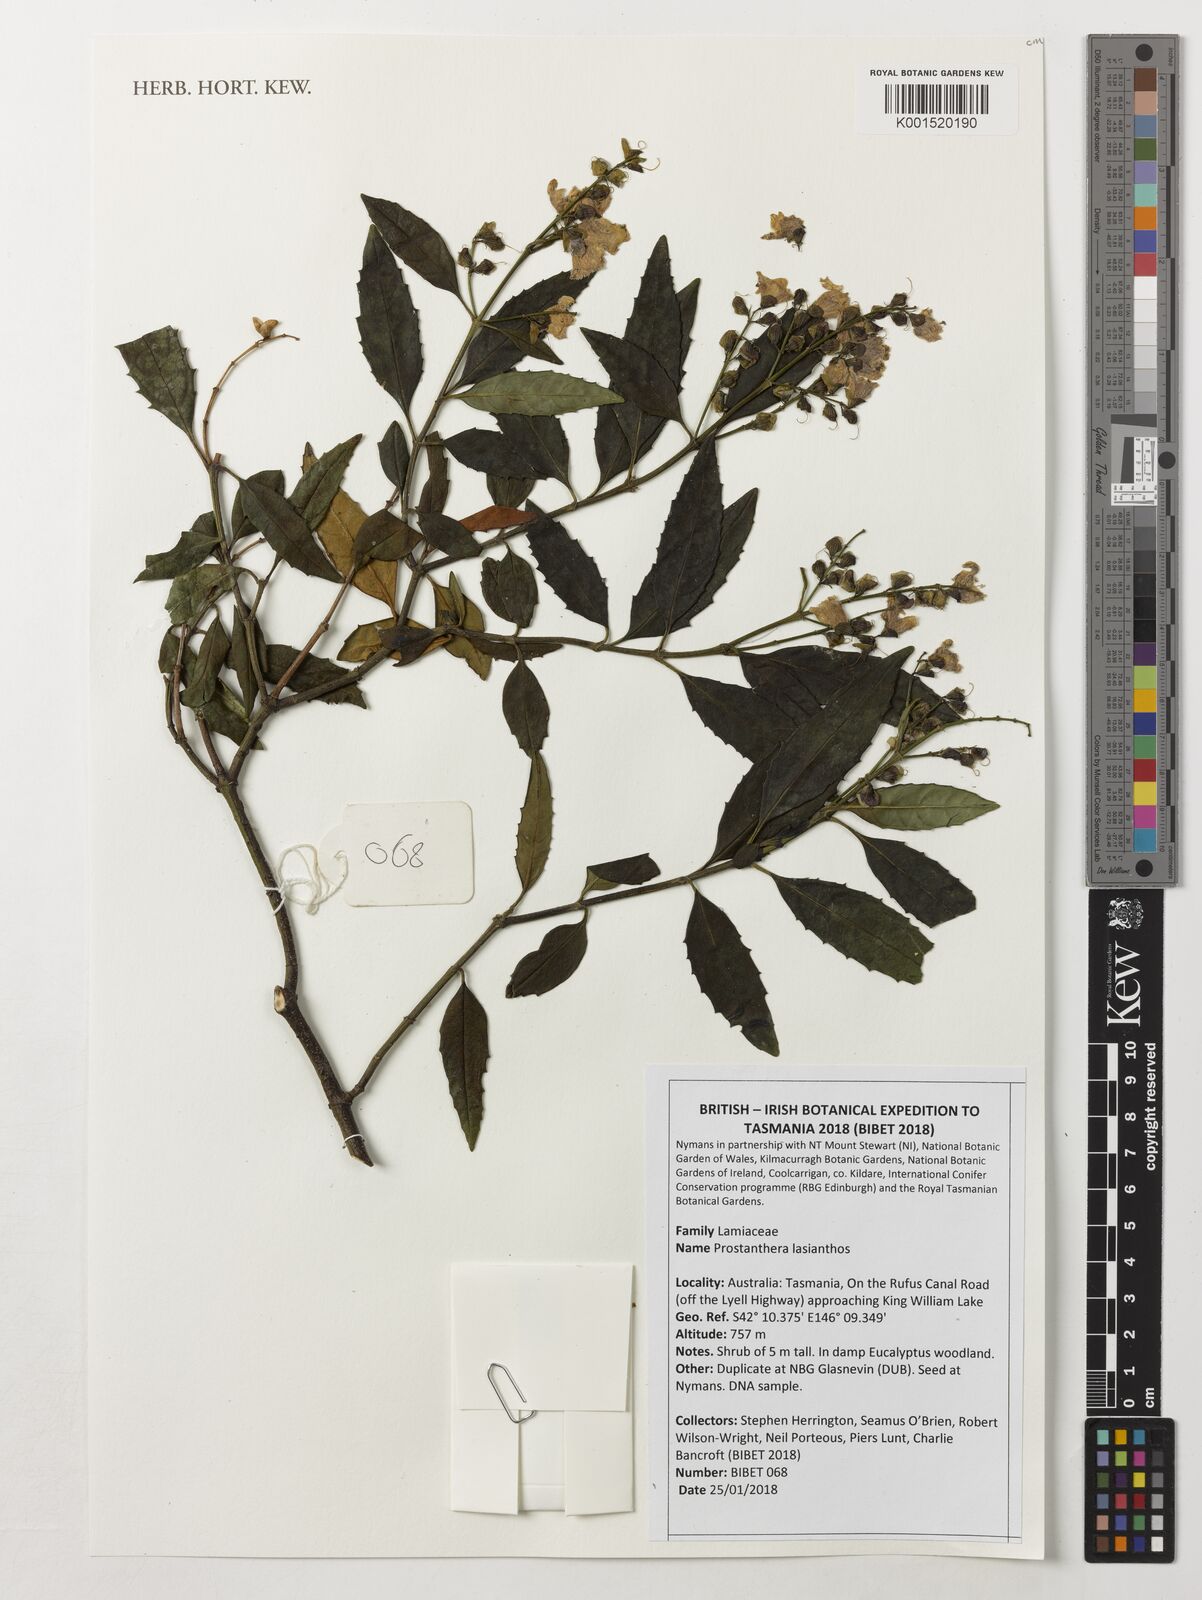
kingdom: Plantae
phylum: Tracheophyta
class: Magnoliopsida
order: Lamiales
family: Lamiaceae
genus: Prostanthera
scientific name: Prostanthera lasianthos
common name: Mountain-lilac
